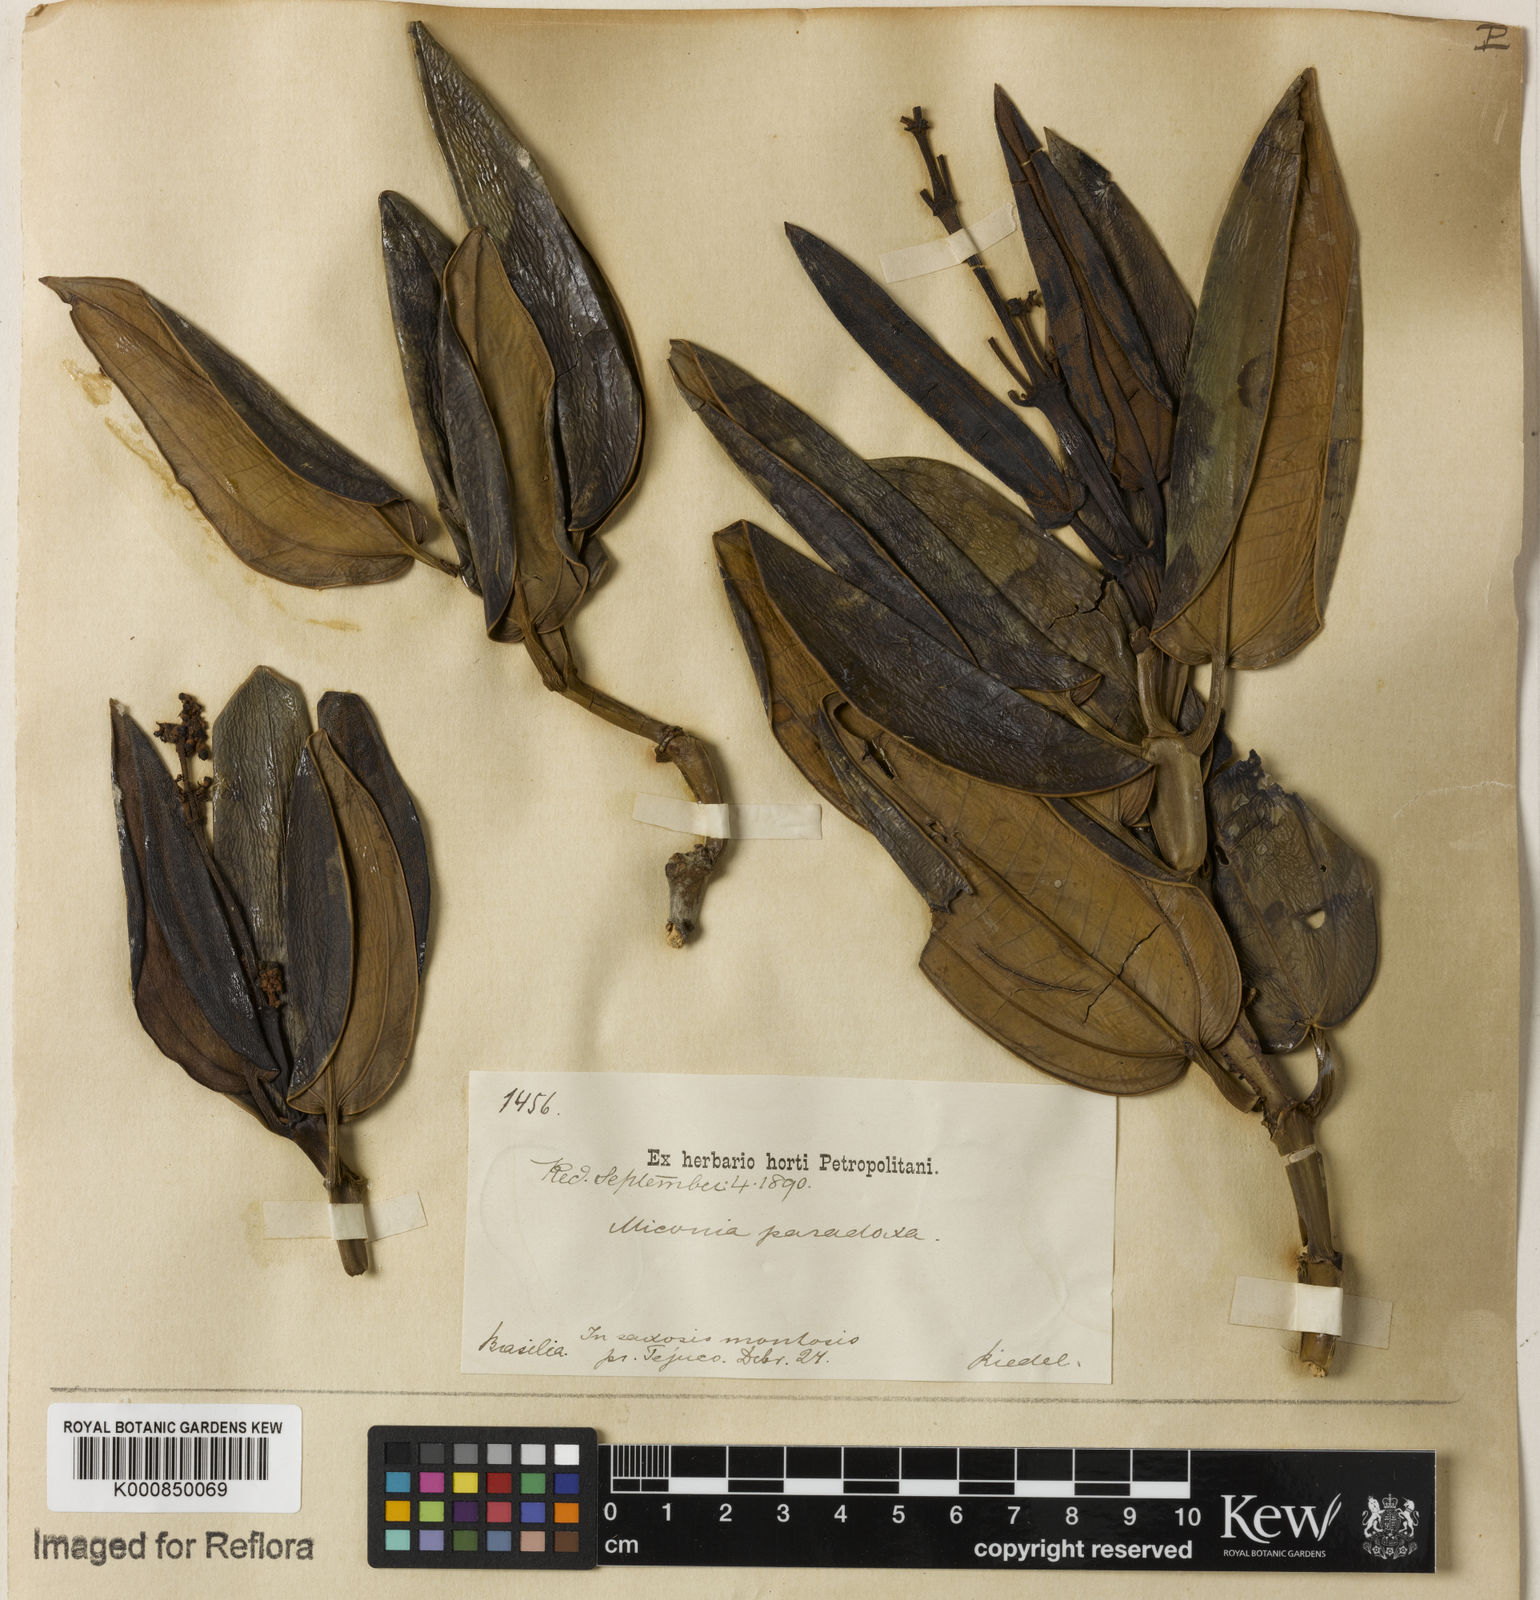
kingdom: Plantae
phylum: Tracheophyta
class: Magnoliopsida
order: Myrtales
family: Melastomataceae
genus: Miconia
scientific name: Miconia paradoxa
